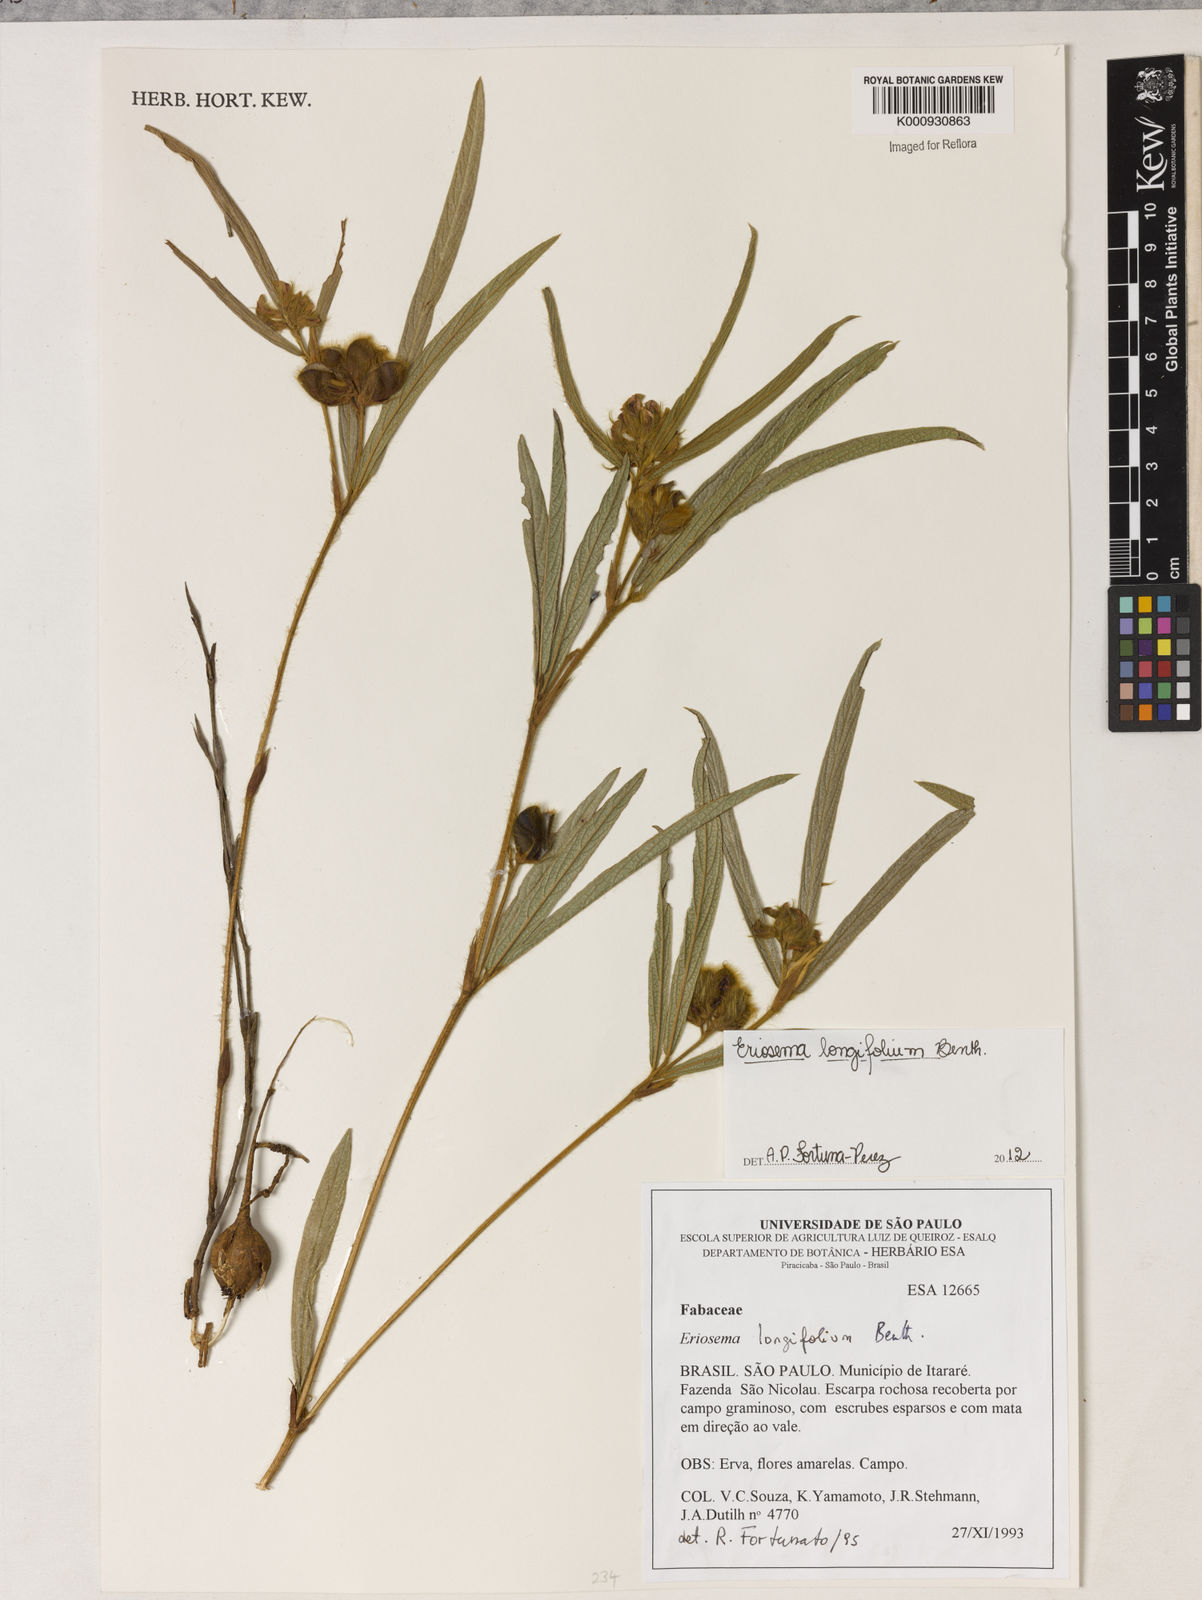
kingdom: Plantae
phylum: Tracheophyta
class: Magnoliopsida
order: Fabales
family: Fabaceae
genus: Eriosema
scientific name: Eriosema longifolium
